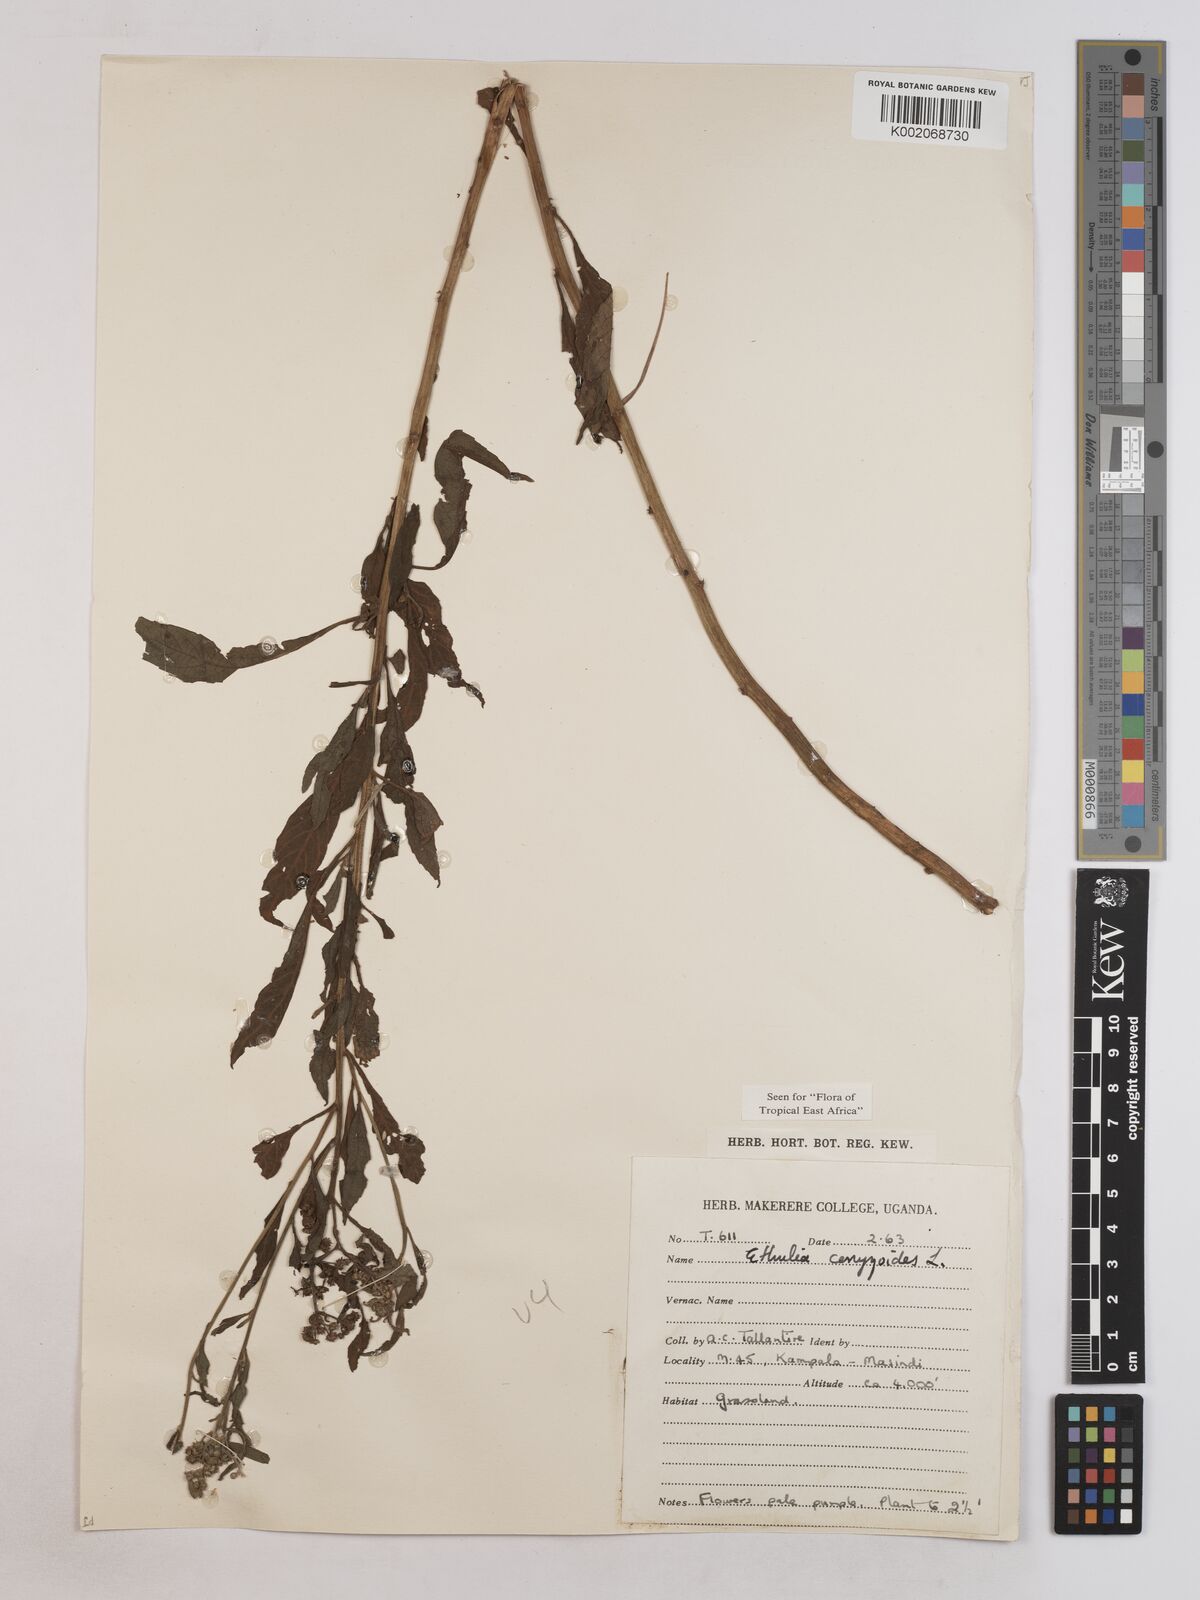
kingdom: Plantae
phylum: Tracheophyta
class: Magnoliopsida
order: Asterales
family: Asteraceae
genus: Ethulia
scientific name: Ethulia conyzoides
